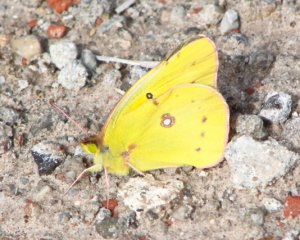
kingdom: Animalia
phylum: Arthropoda
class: Insecta
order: Lepidoptera
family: Pieridae
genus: Colias
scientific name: Colias eurytheme
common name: Orange Sulphur
